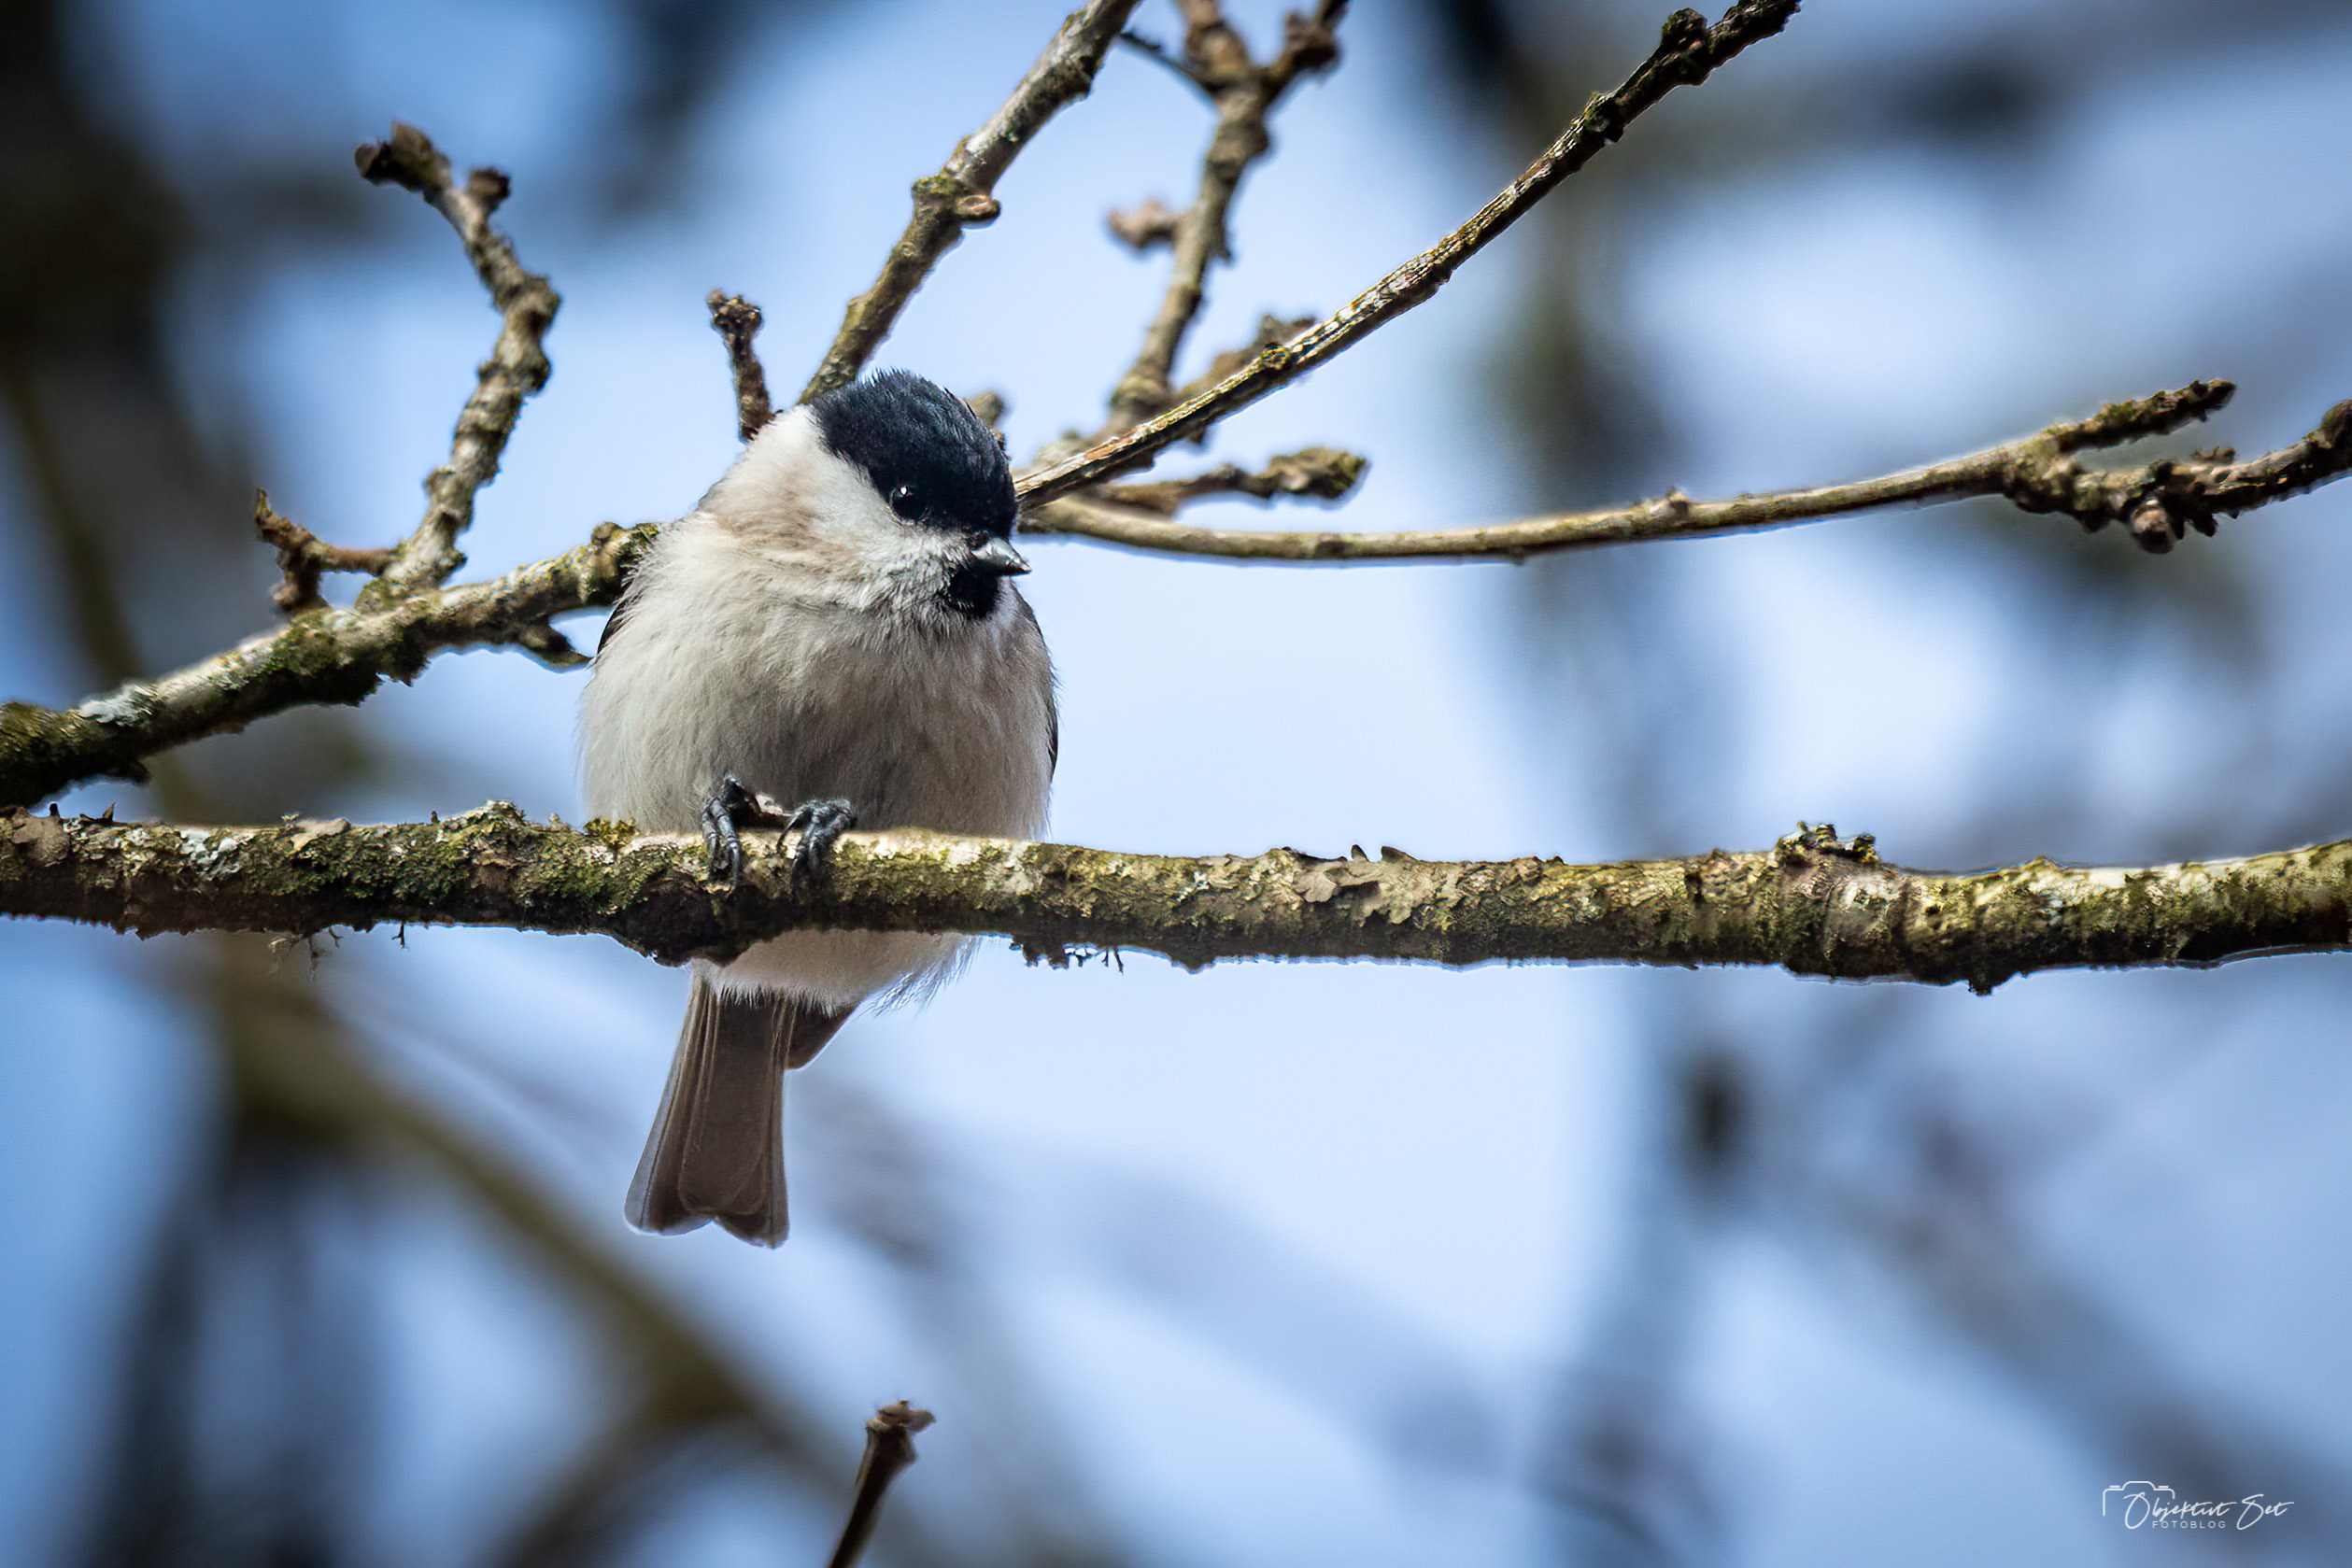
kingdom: Animalia
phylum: Chordata
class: Aves
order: Passeriformes
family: Paridae
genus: Poecile
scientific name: Poecile palustris
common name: Sumpmejse
